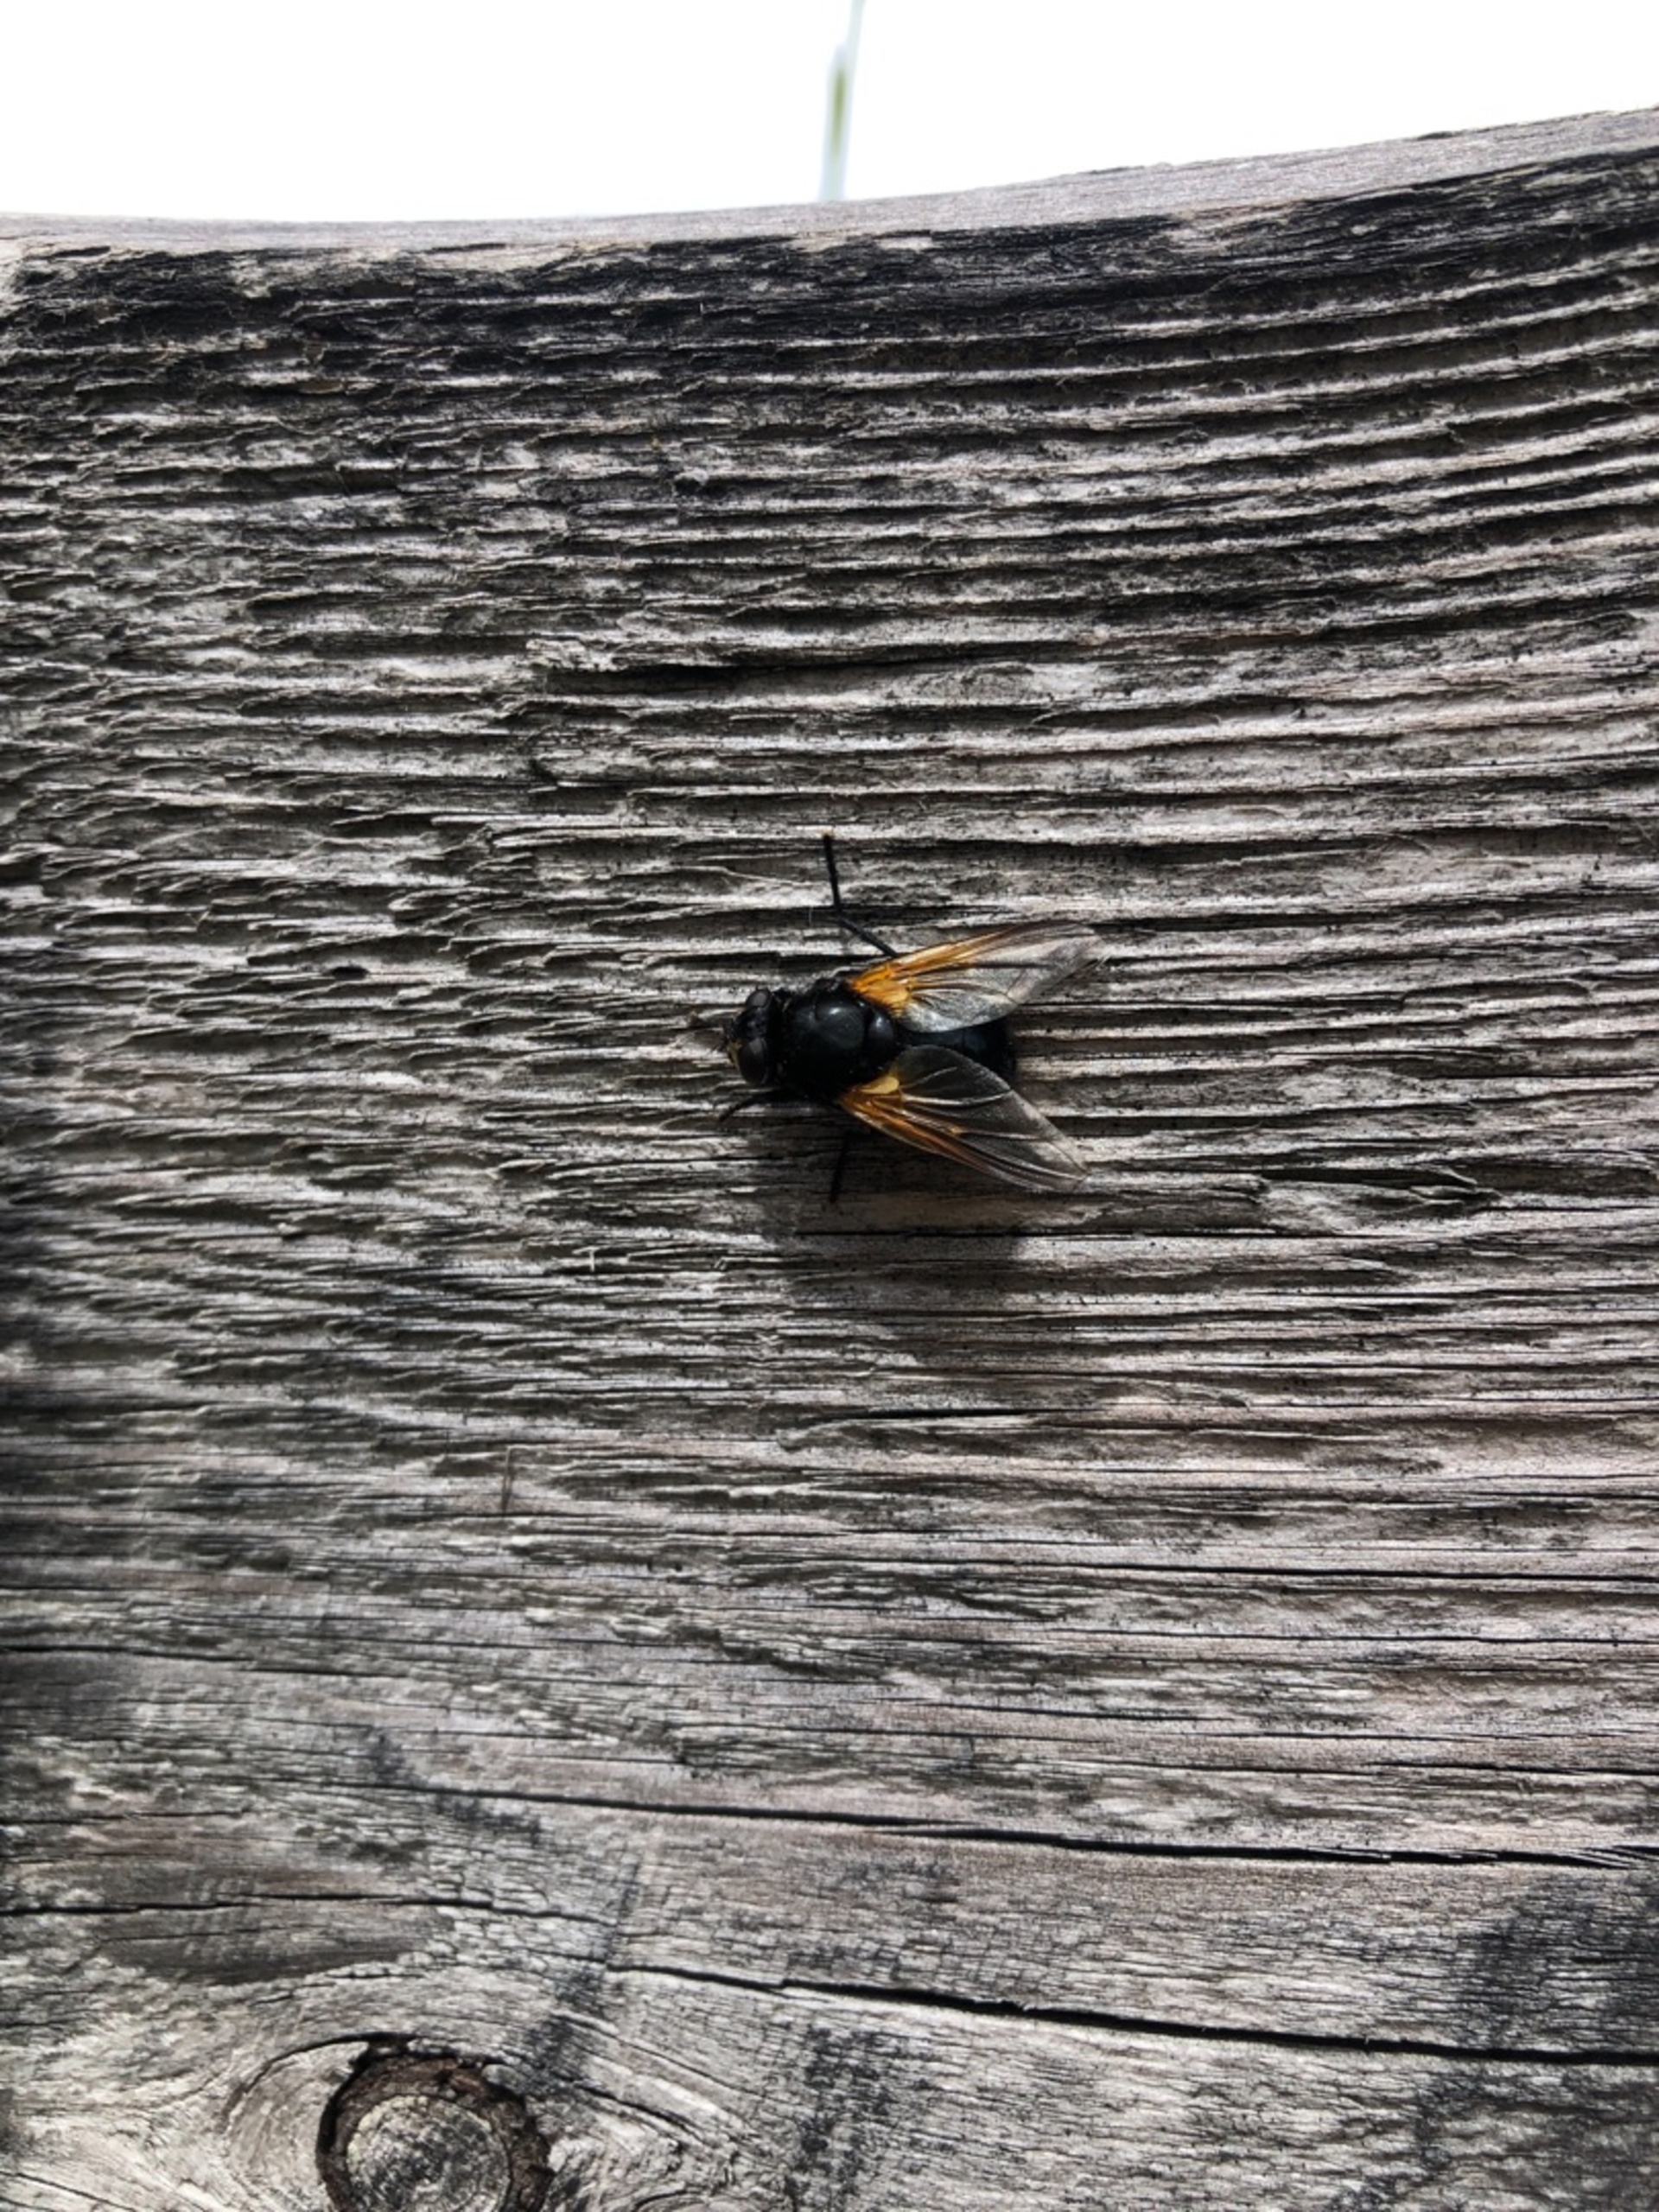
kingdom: Animalia
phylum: Arthropoda
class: Insecta
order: Diptera
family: Muscidae
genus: Mesembrina
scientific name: Mesembrina meridiana
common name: Gulvinget flue
